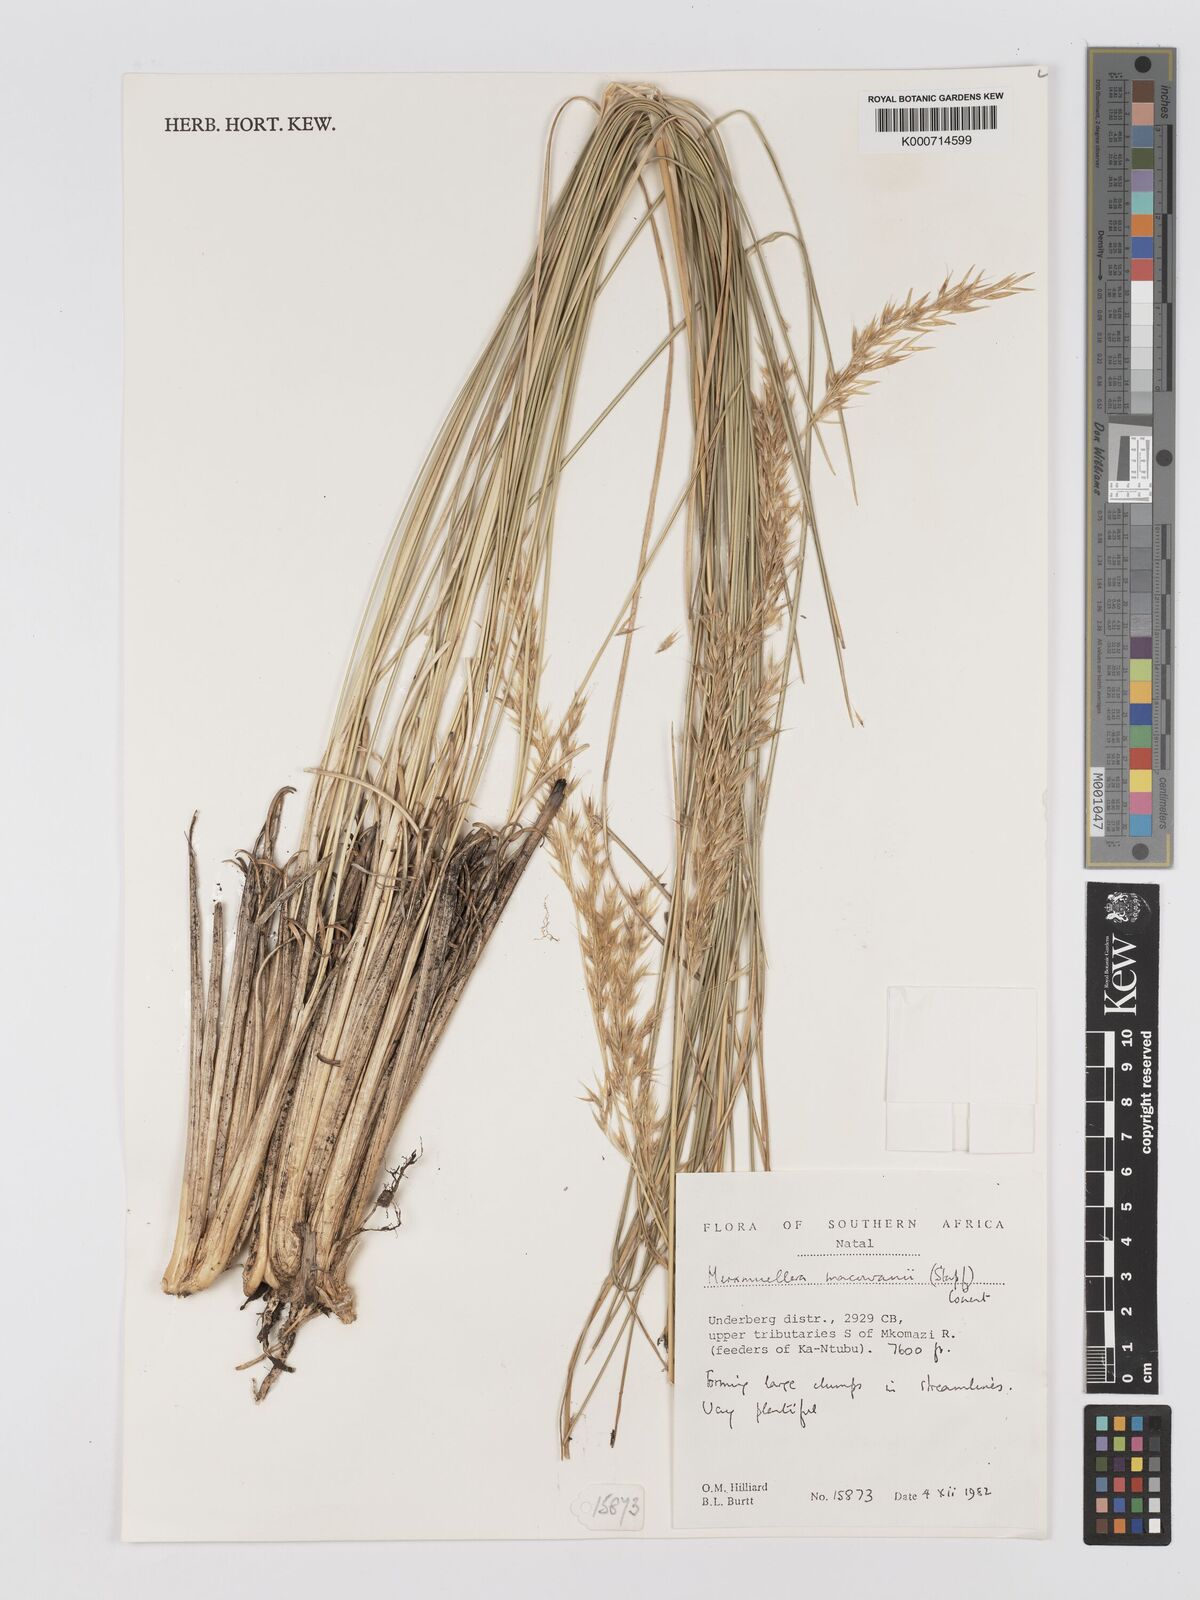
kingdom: Plantae
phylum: Tracheophyta
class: Liliopsida
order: Poales
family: Poaceae
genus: Rytidosperma
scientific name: Rytidosperma
